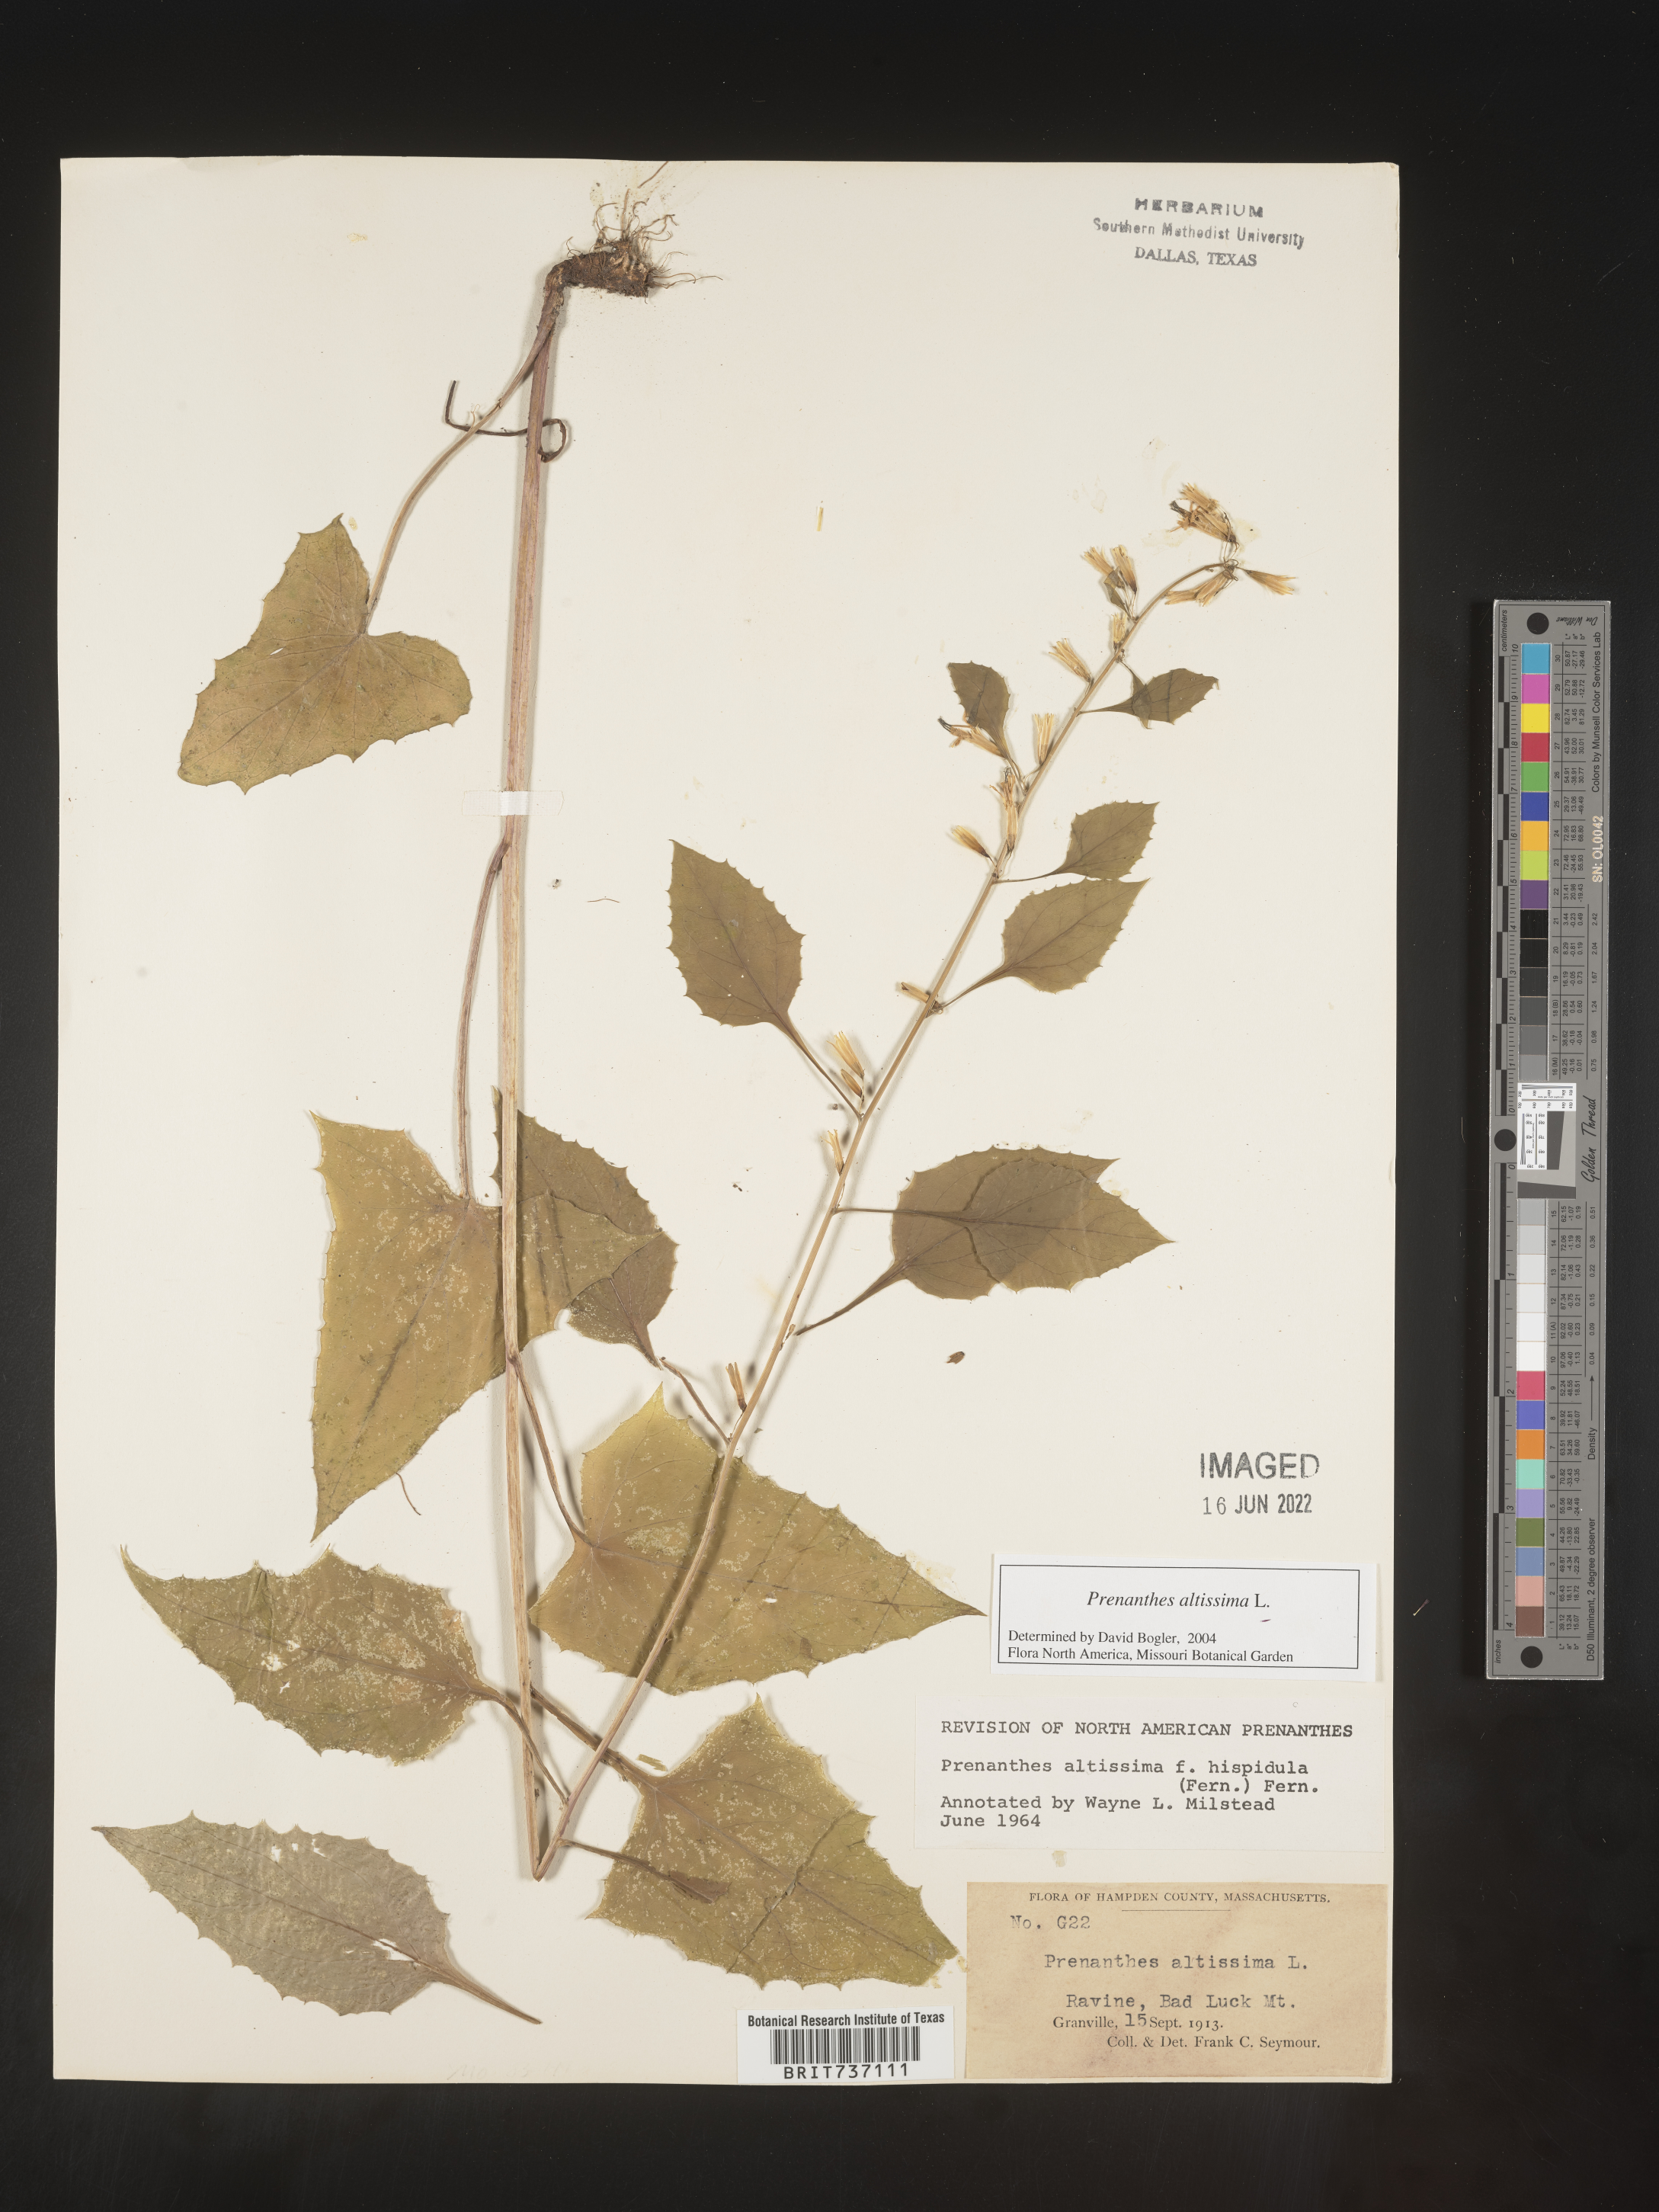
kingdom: Plantae
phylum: Tracheophyta
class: Magnoliopsida
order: Asterales
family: Asteraceae
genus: Lactuca
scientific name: Lactuca quercina
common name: Wild lettuce
